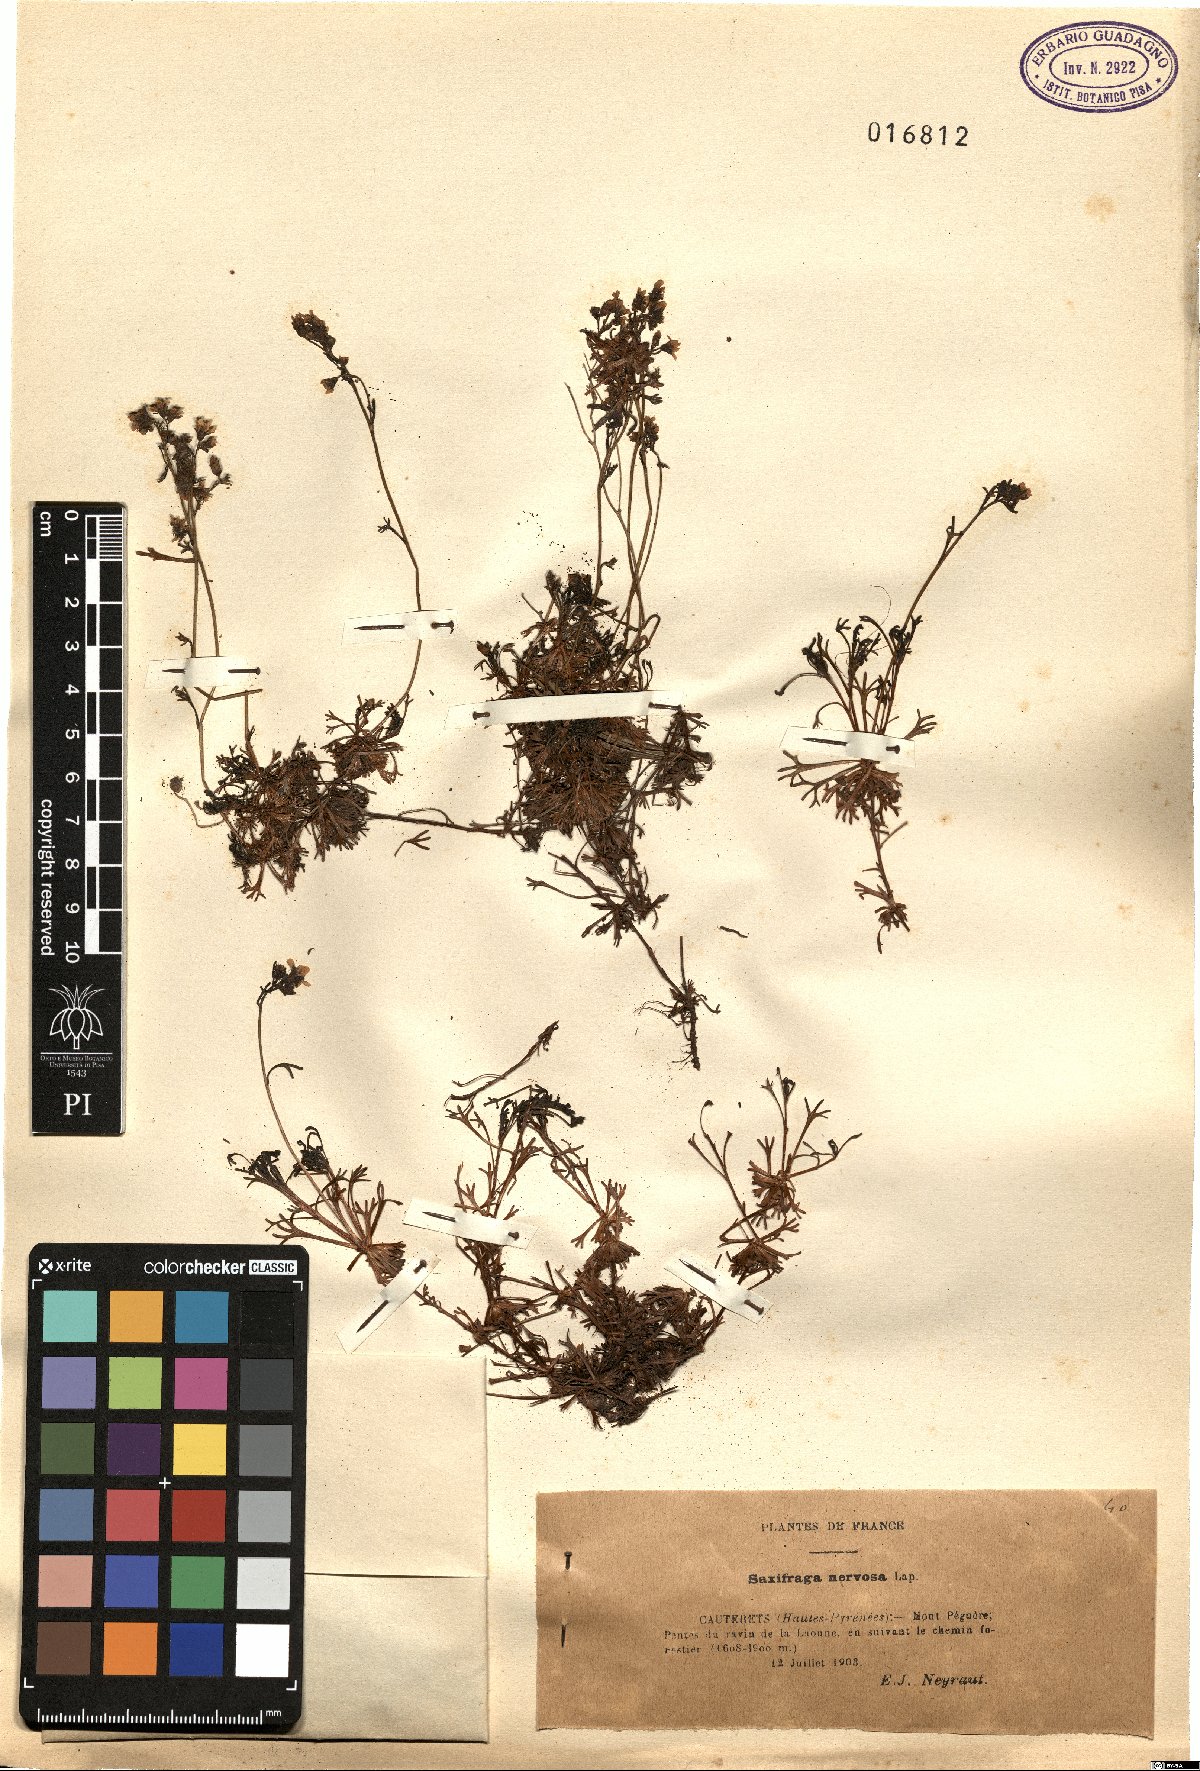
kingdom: Plantae
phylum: Tracheophyta
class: Magnoliopsida
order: Saxifragales
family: Saxifragaceae
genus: Saxifraga
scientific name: Saxifraga intricata
